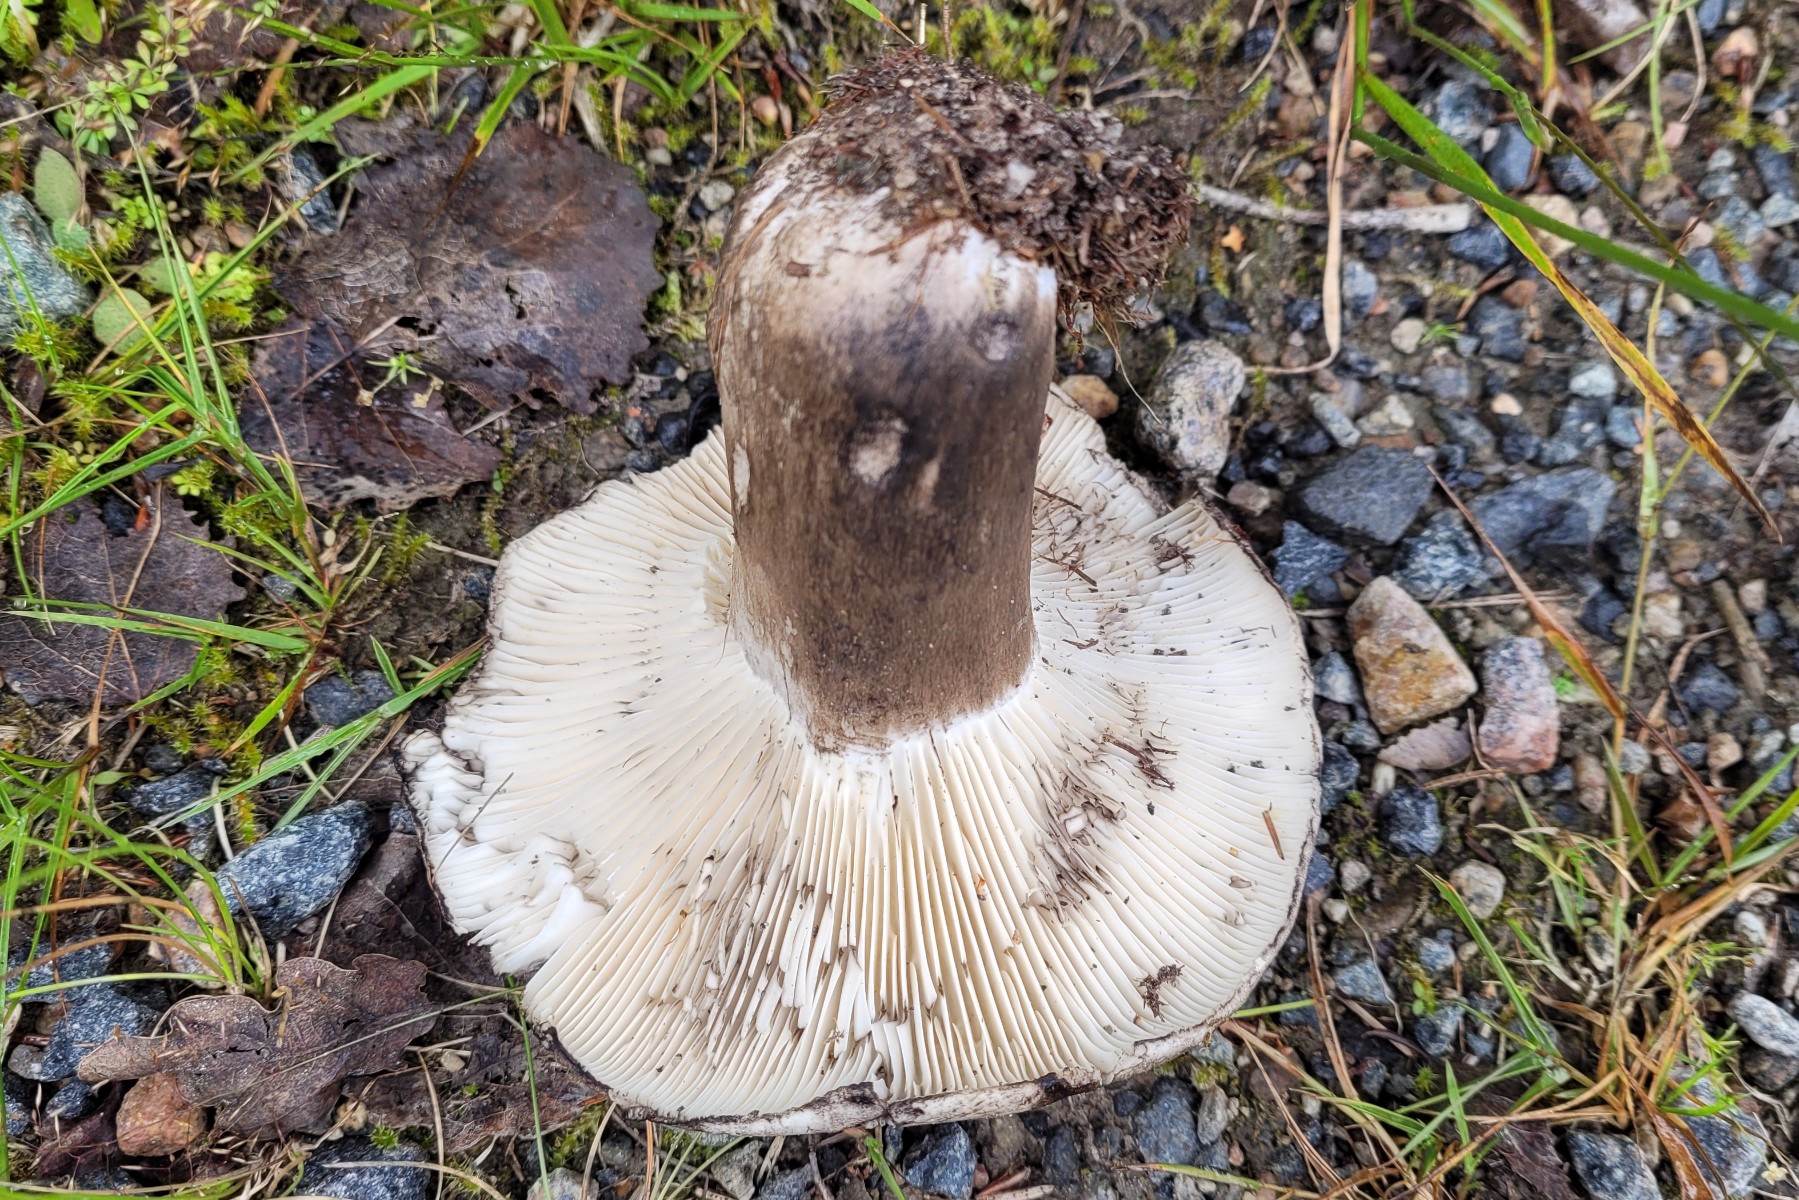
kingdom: Fungi
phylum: Basidiomycota
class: Agaricomycetes
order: Russulales
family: Russulaceae
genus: Russula
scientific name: Russula albonigra
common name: sorthvid skørhat
